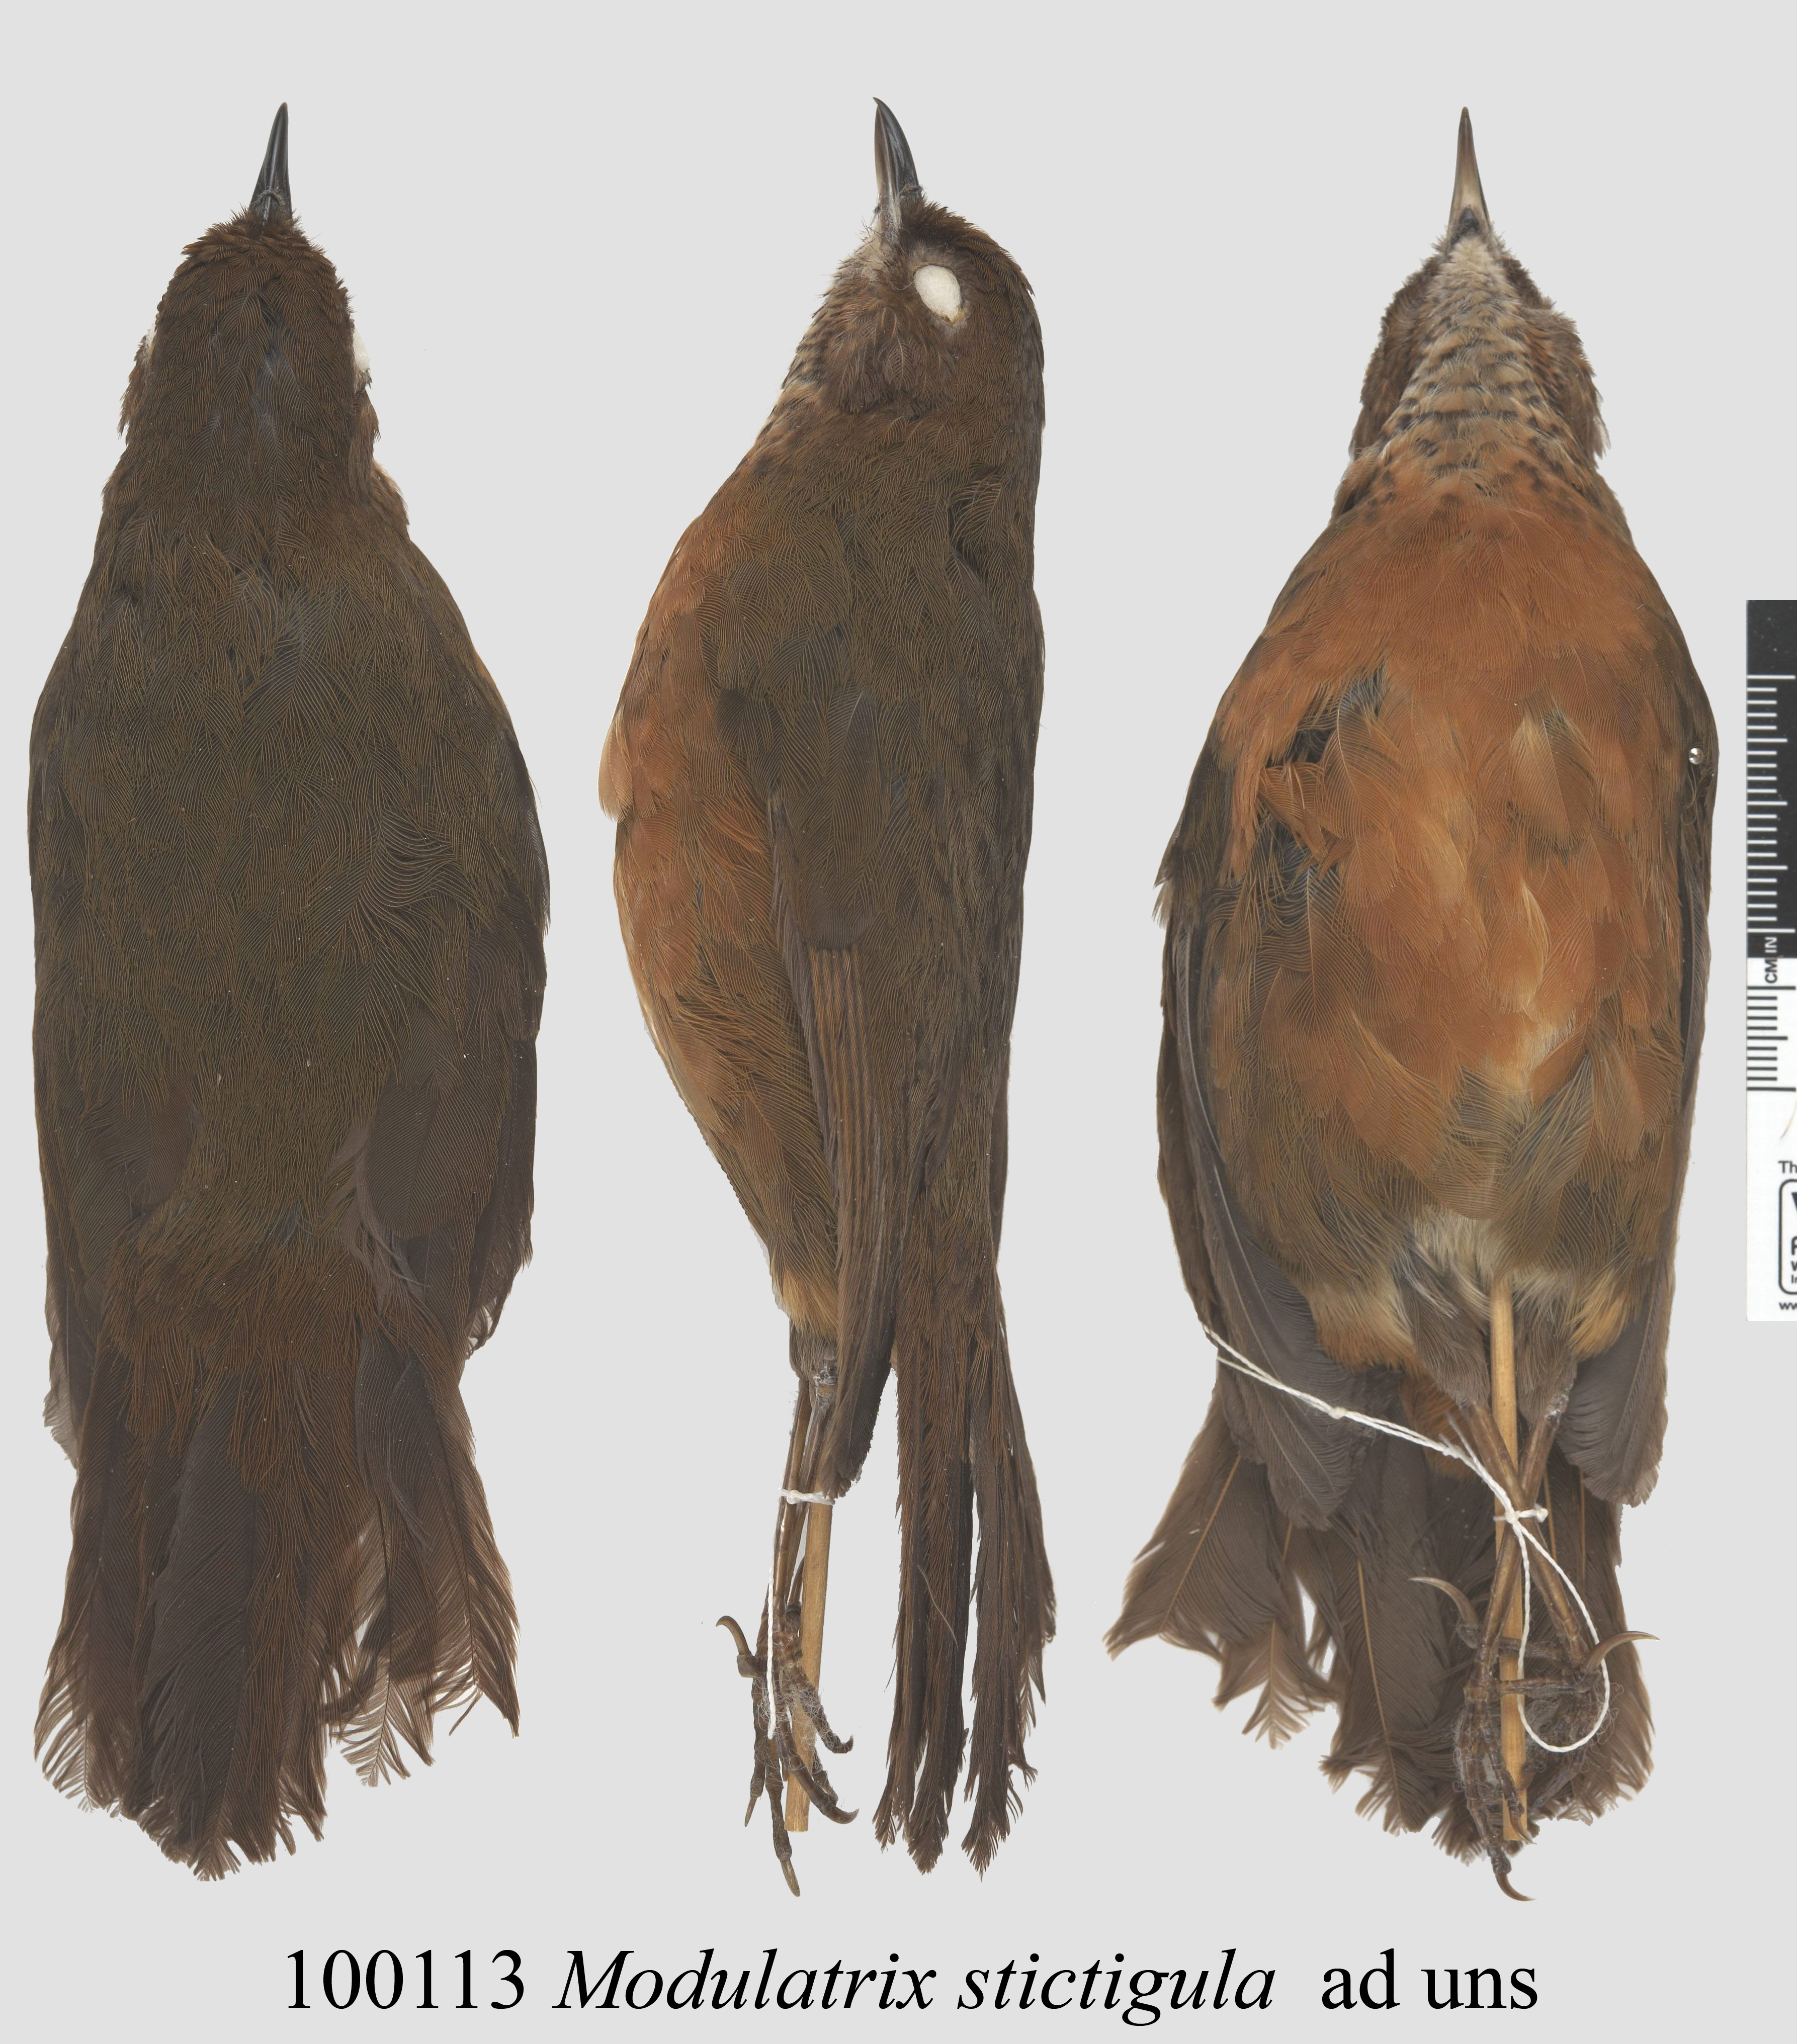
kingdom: Animalia
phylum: Chordata
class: Aves
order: Passeriformes
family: Arcanatoridae
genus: Modulatrix
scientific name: Modulatrix stictigula
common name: Spot-throat
